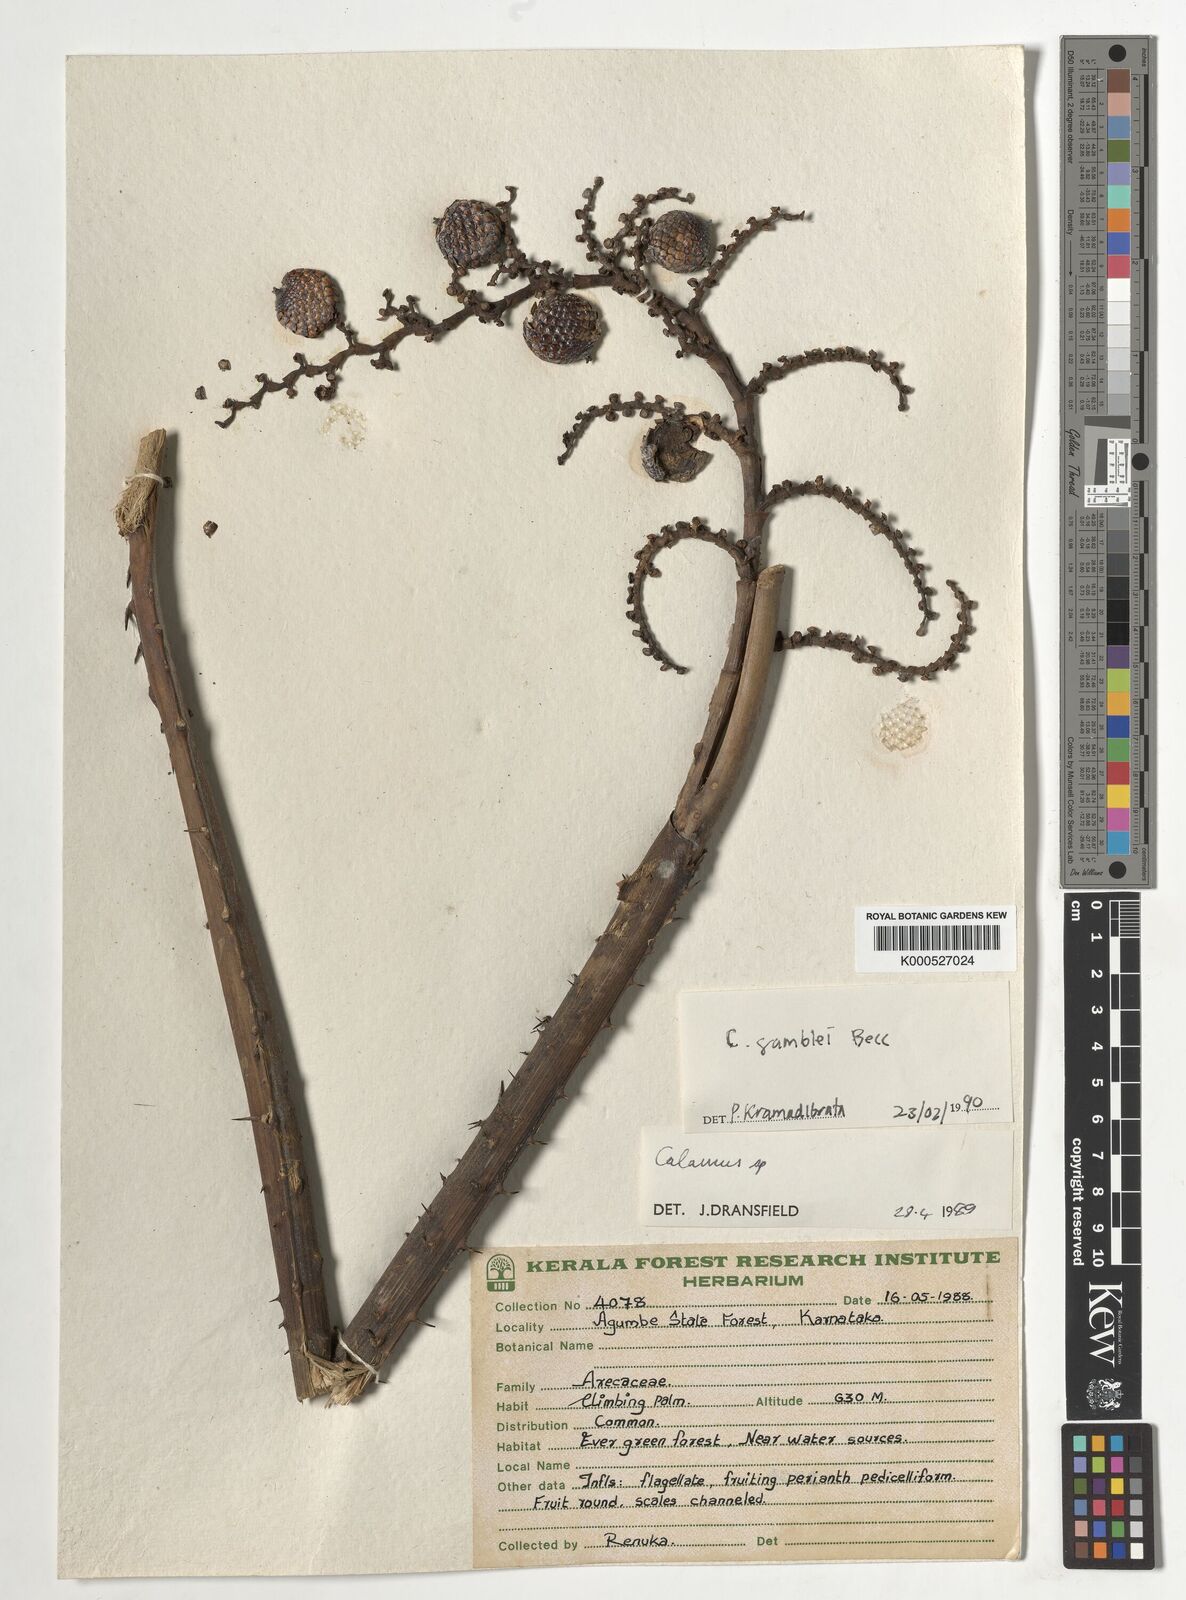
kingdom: Plantae
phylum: Tracheophyta
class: Liliopsida
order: Arecales
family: Arecaceae
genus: Calamus
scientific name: Calamus gamblei
